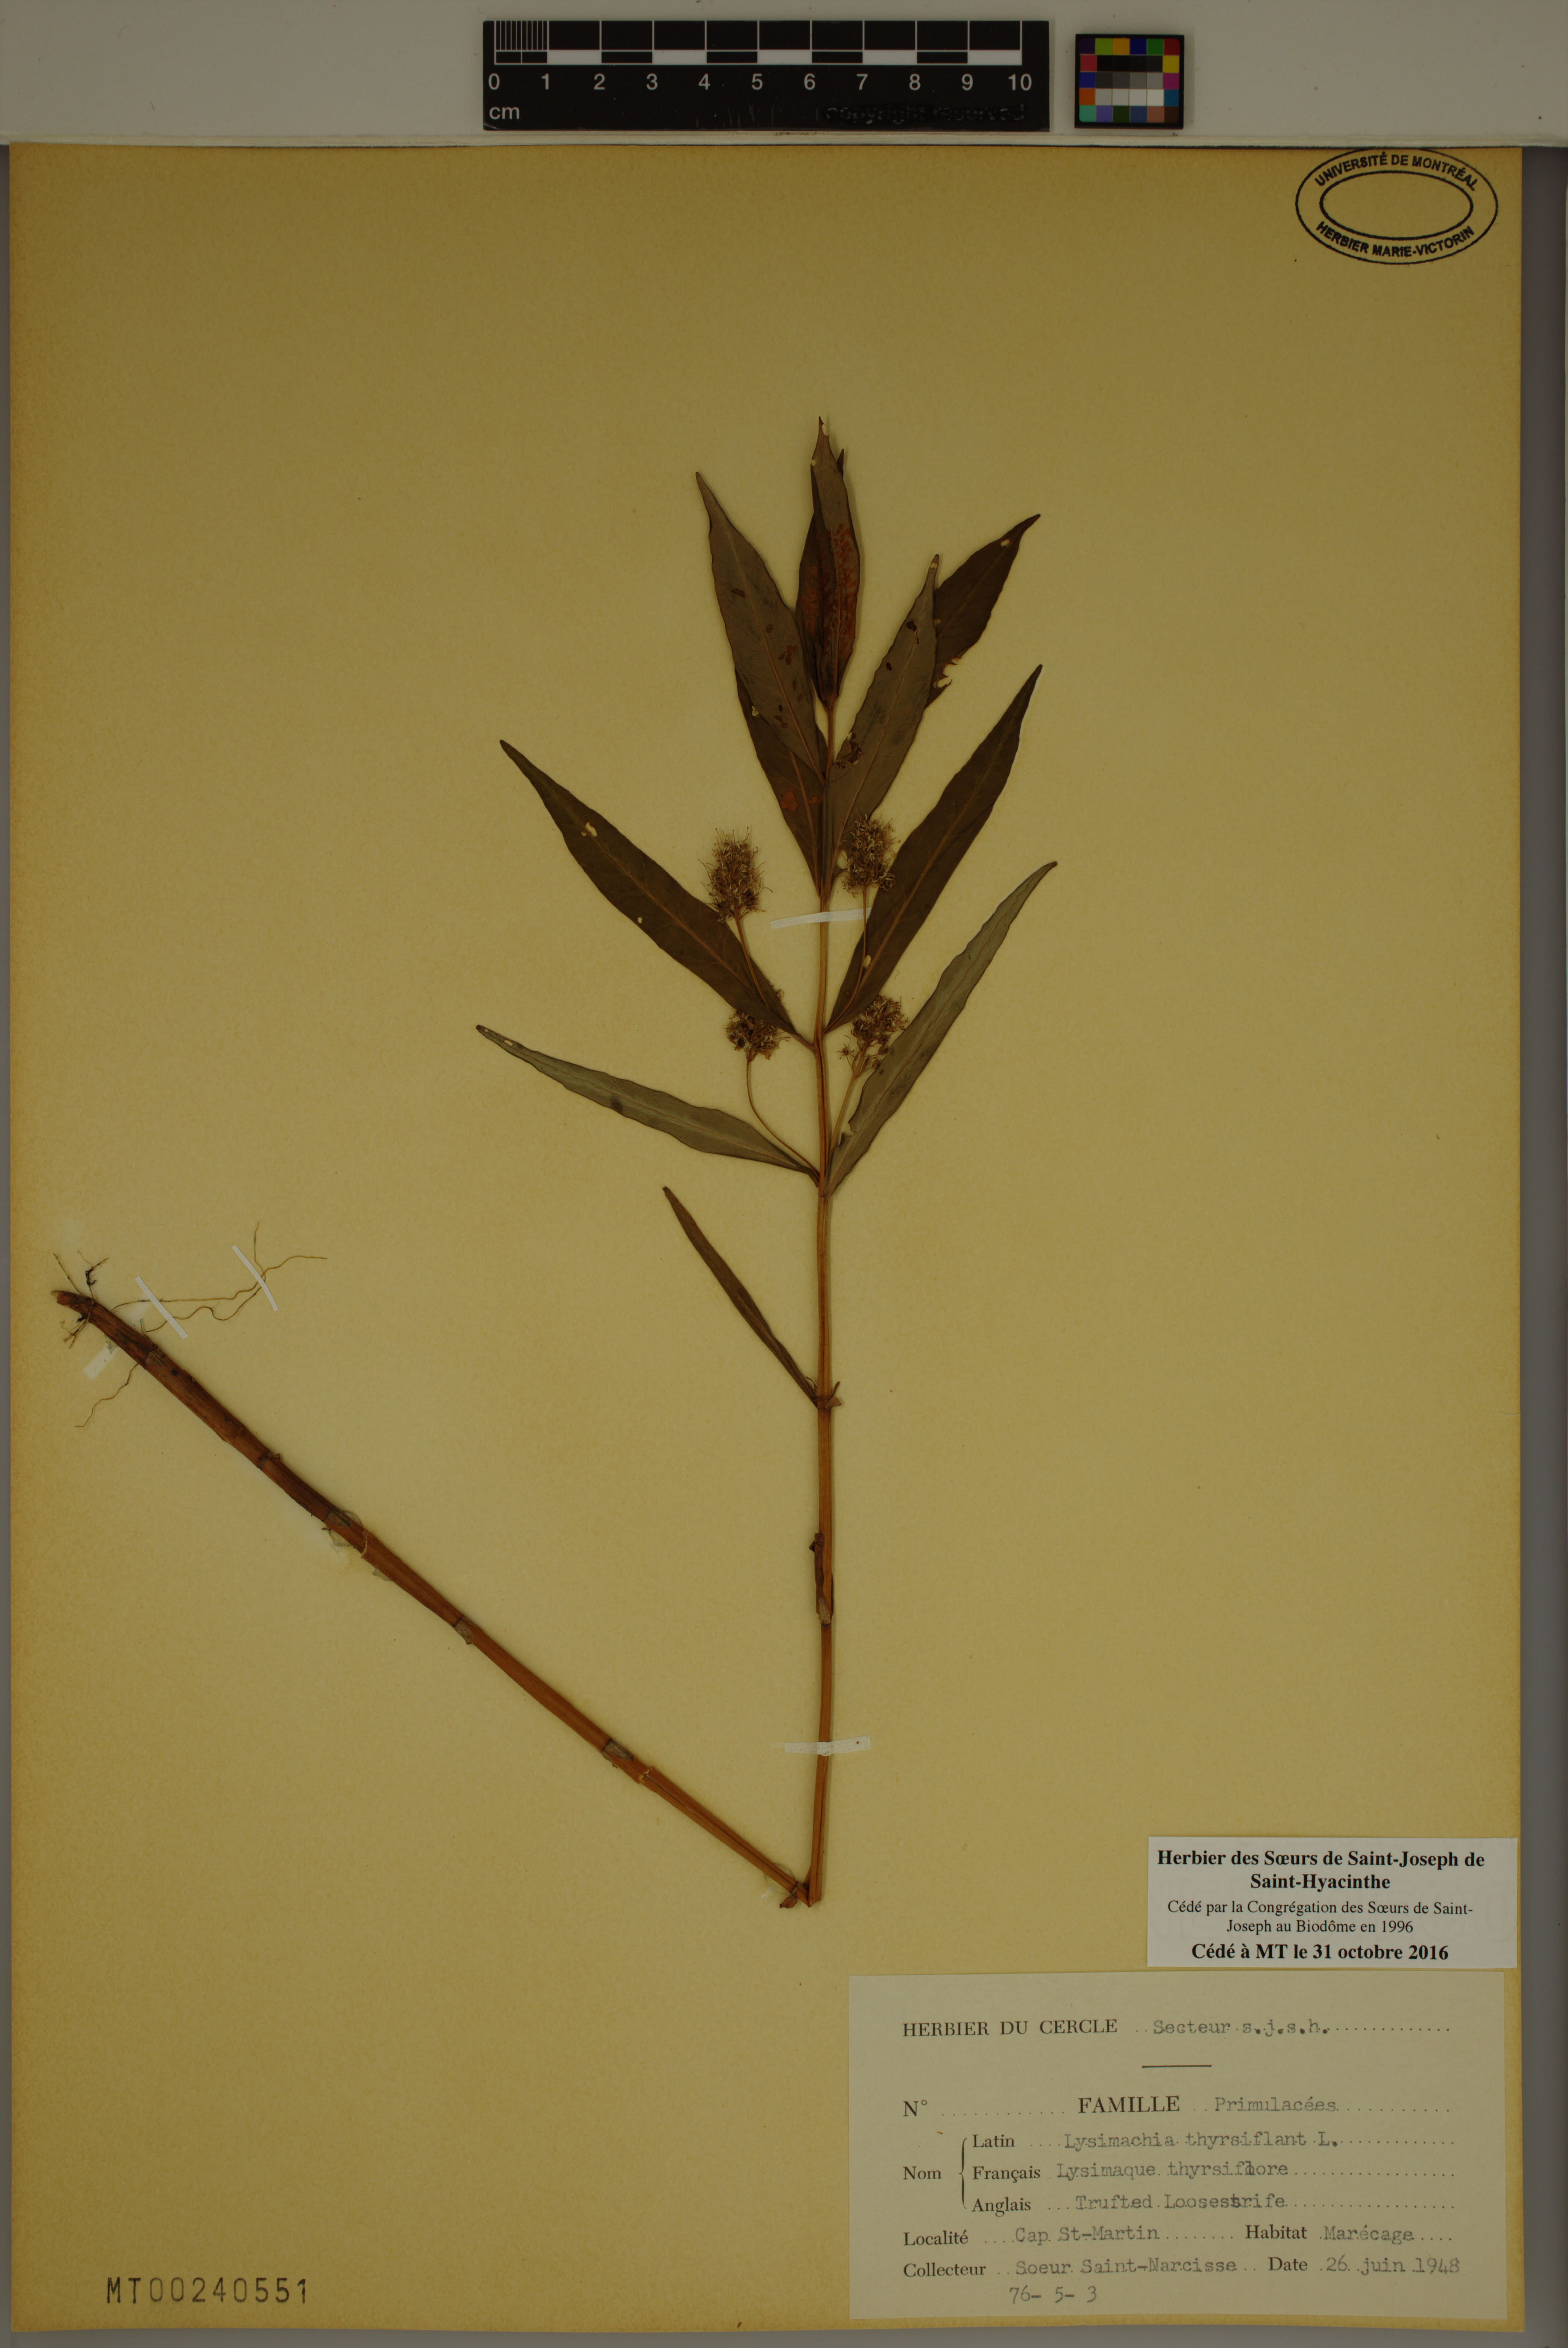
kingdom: Plantae
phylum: Tracheophyta
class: Magnoliopsida
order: Ericales
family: Primulaceae
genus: Lysimachia
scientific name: Lysimachia thyrsiflora
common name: Tufted loosestrife
